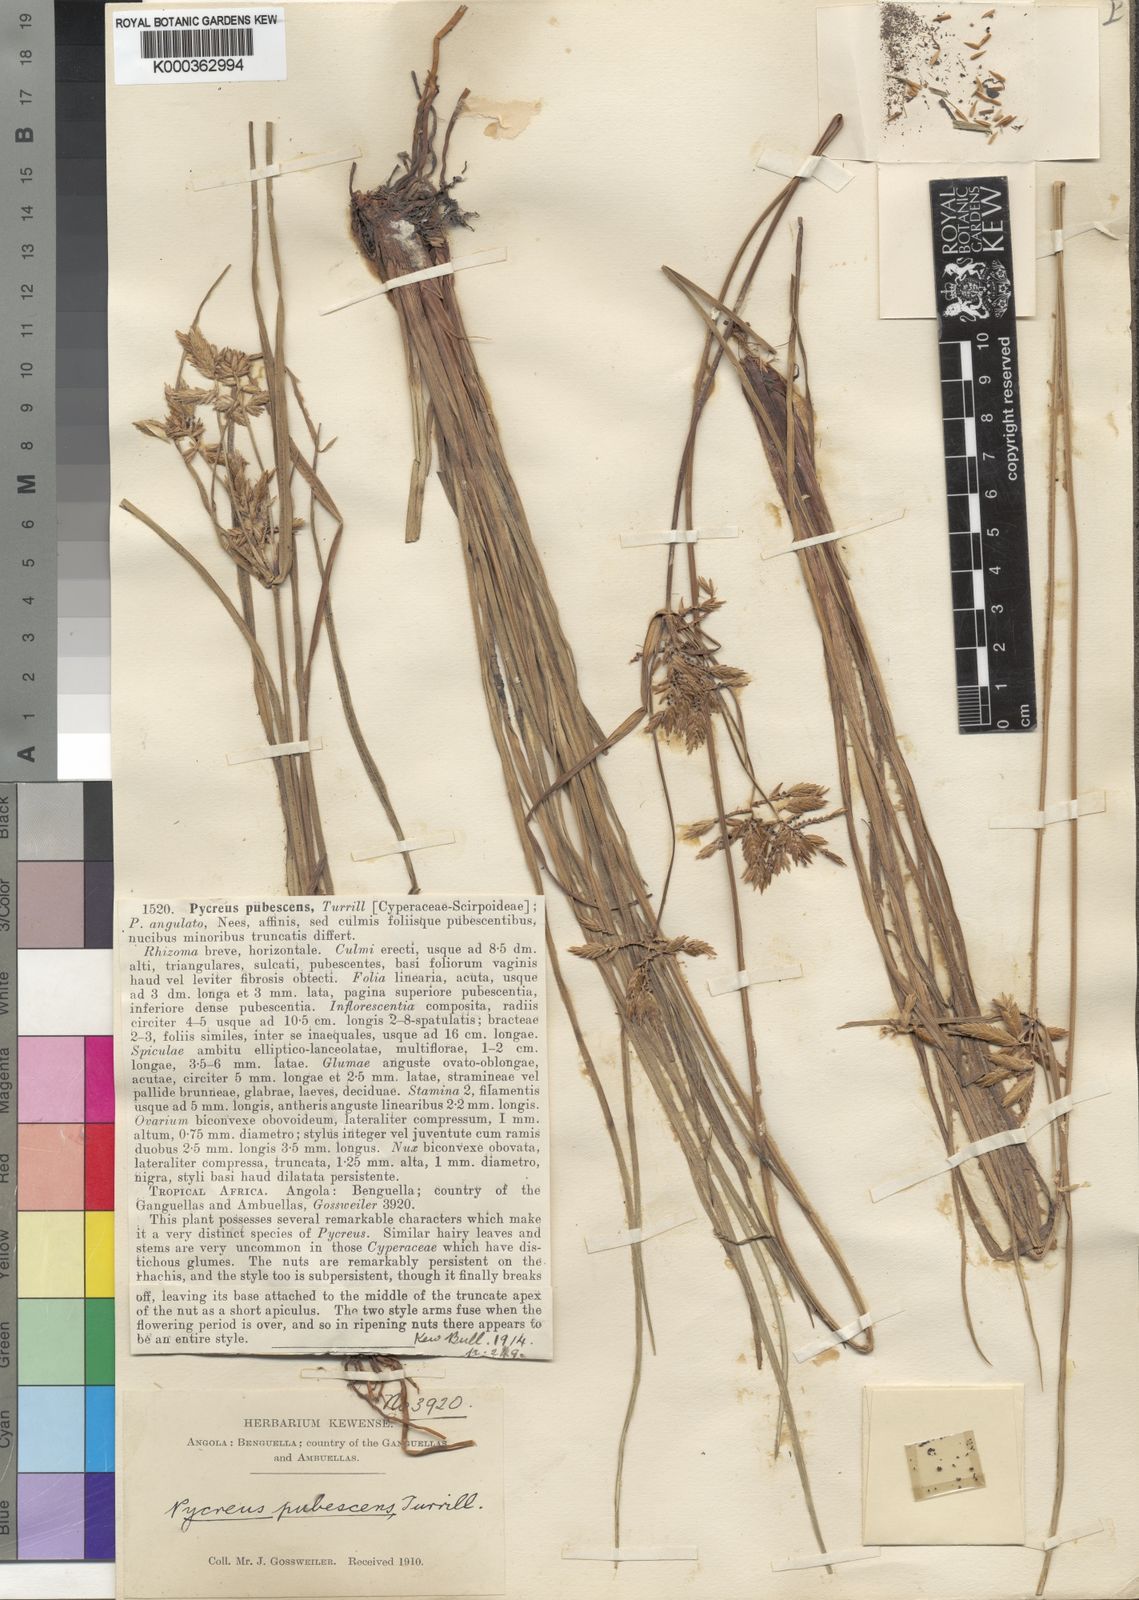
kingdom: Plantae
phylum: Tracheophyta
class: Liliopsida
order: Poales
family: Cyperaceae
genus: Cyperus
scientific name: Cyperus gossweileri
